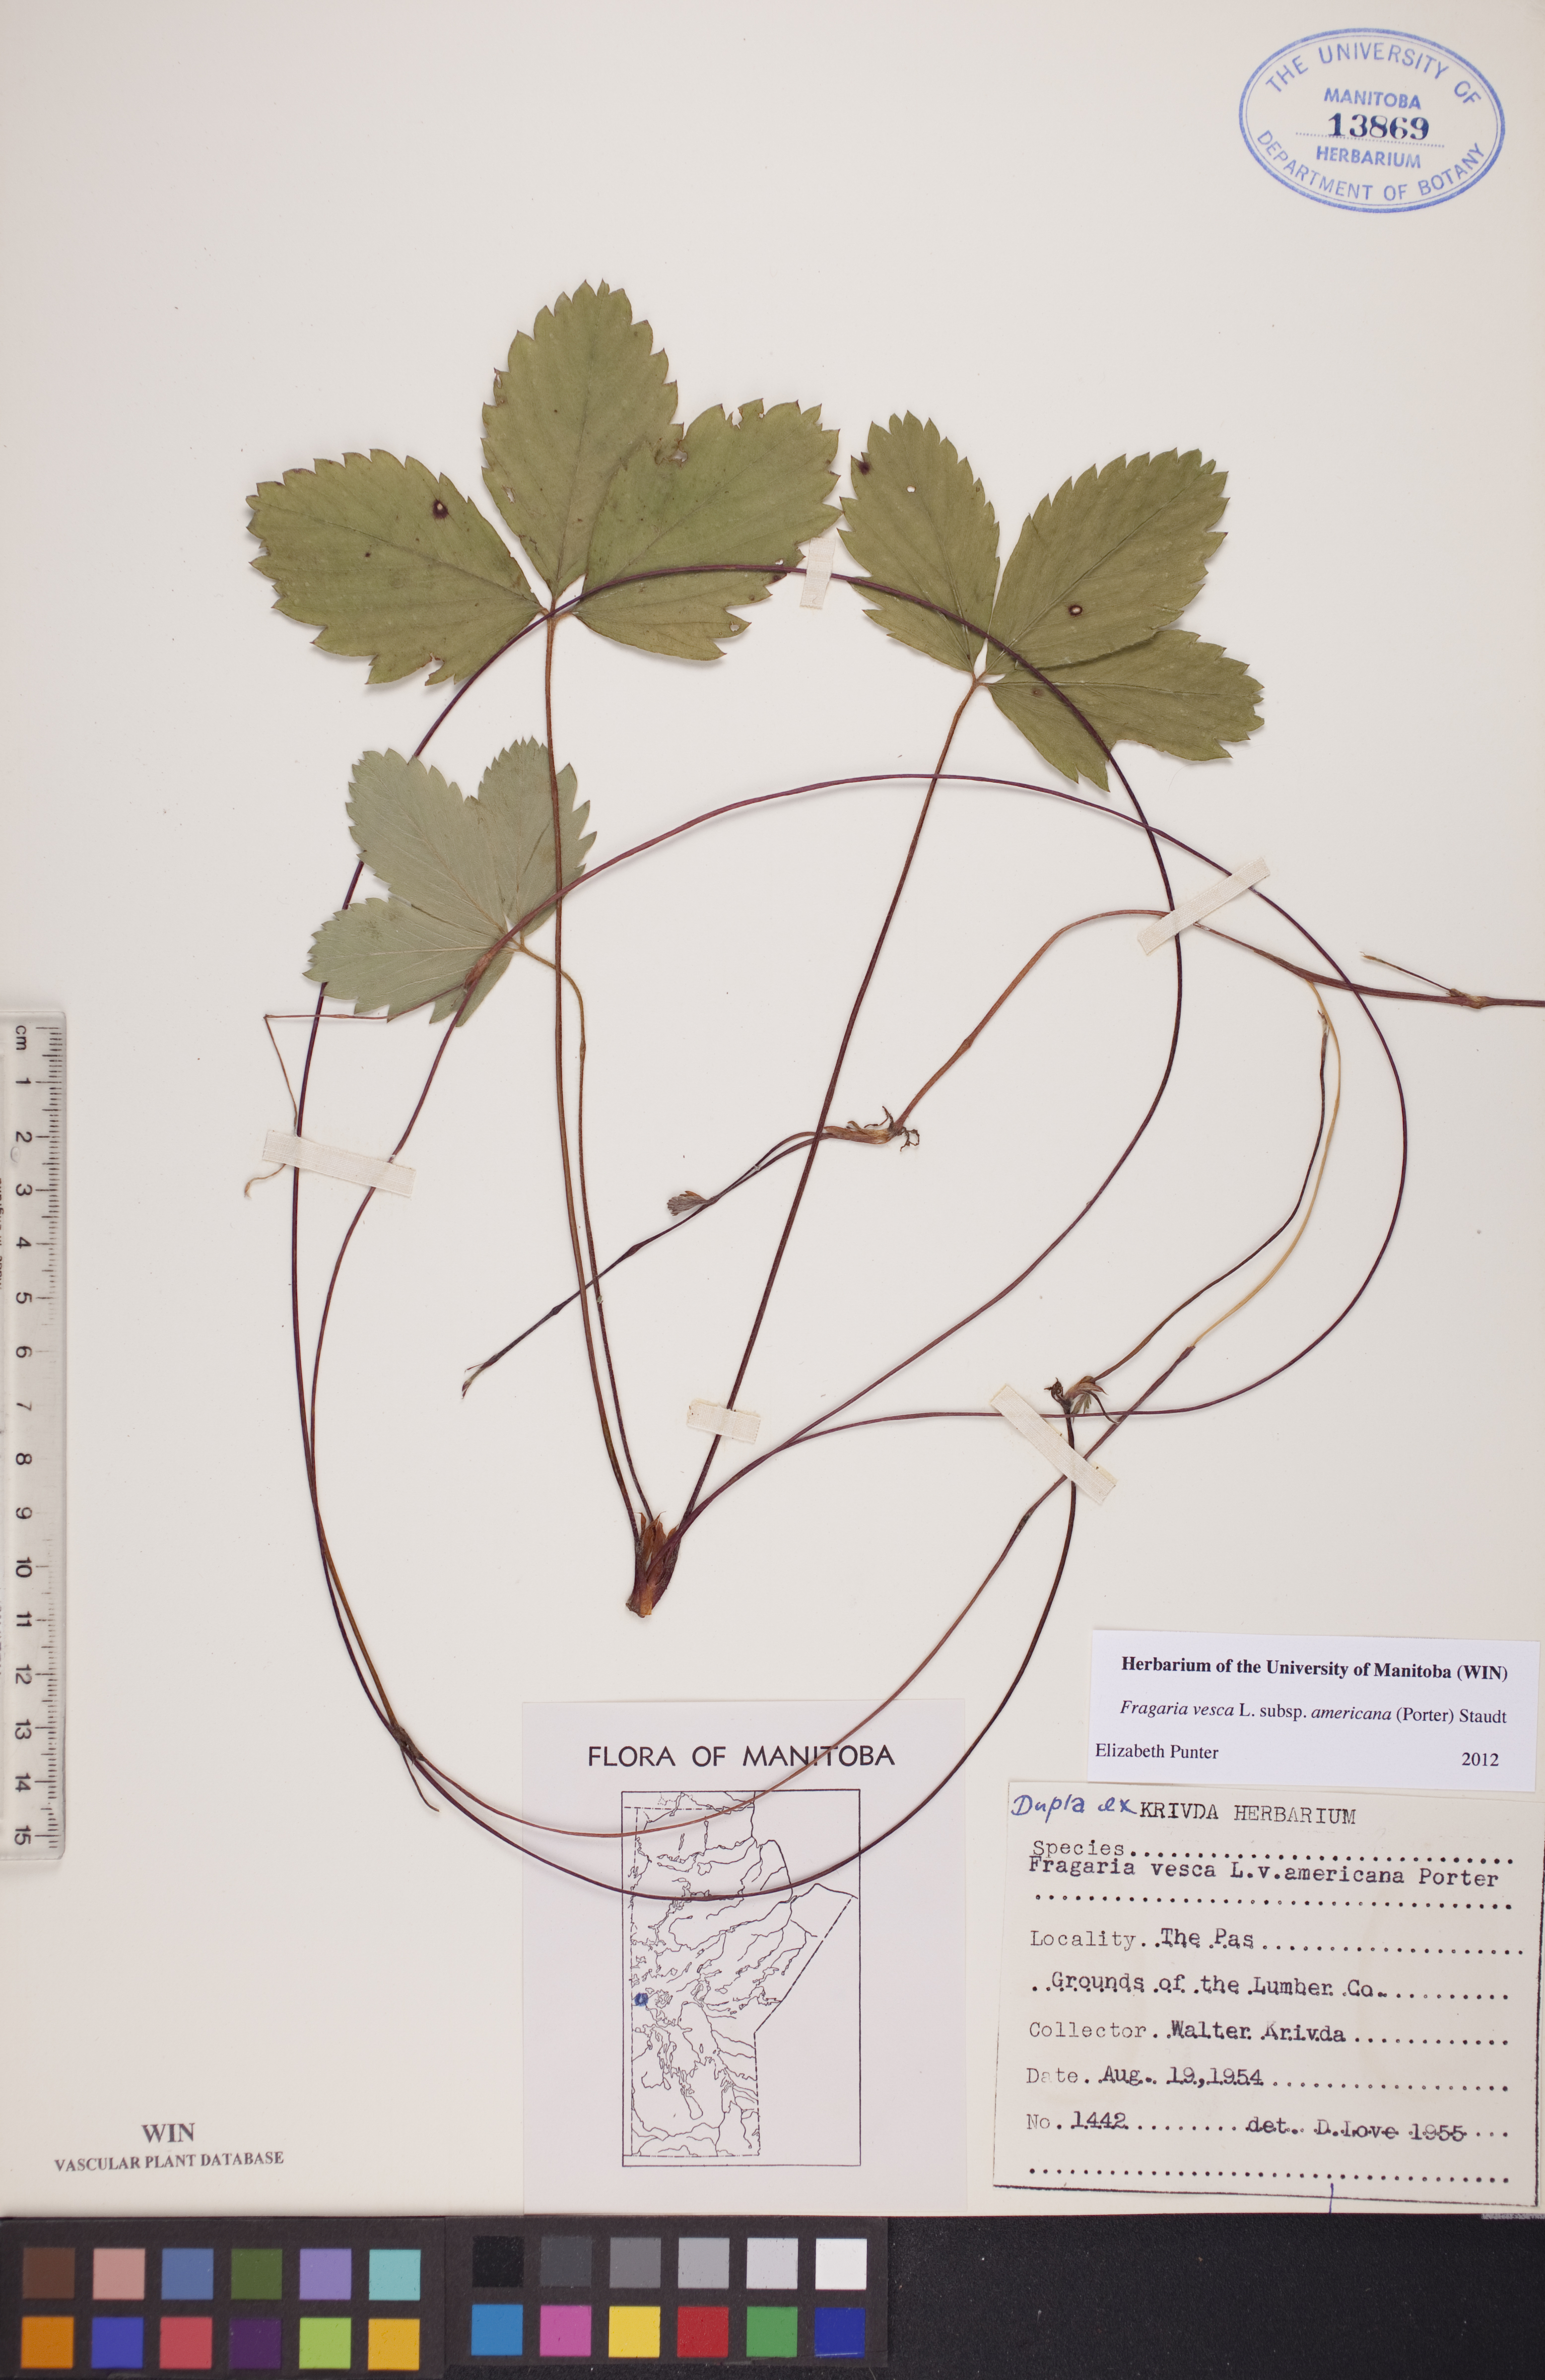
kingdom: Plantae
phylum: Tracheophyta
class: Magnoliopsida
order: Rosales
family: Rosaceae
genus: Fragaria
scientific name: Fragaria vesca
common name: Wild strawberry
